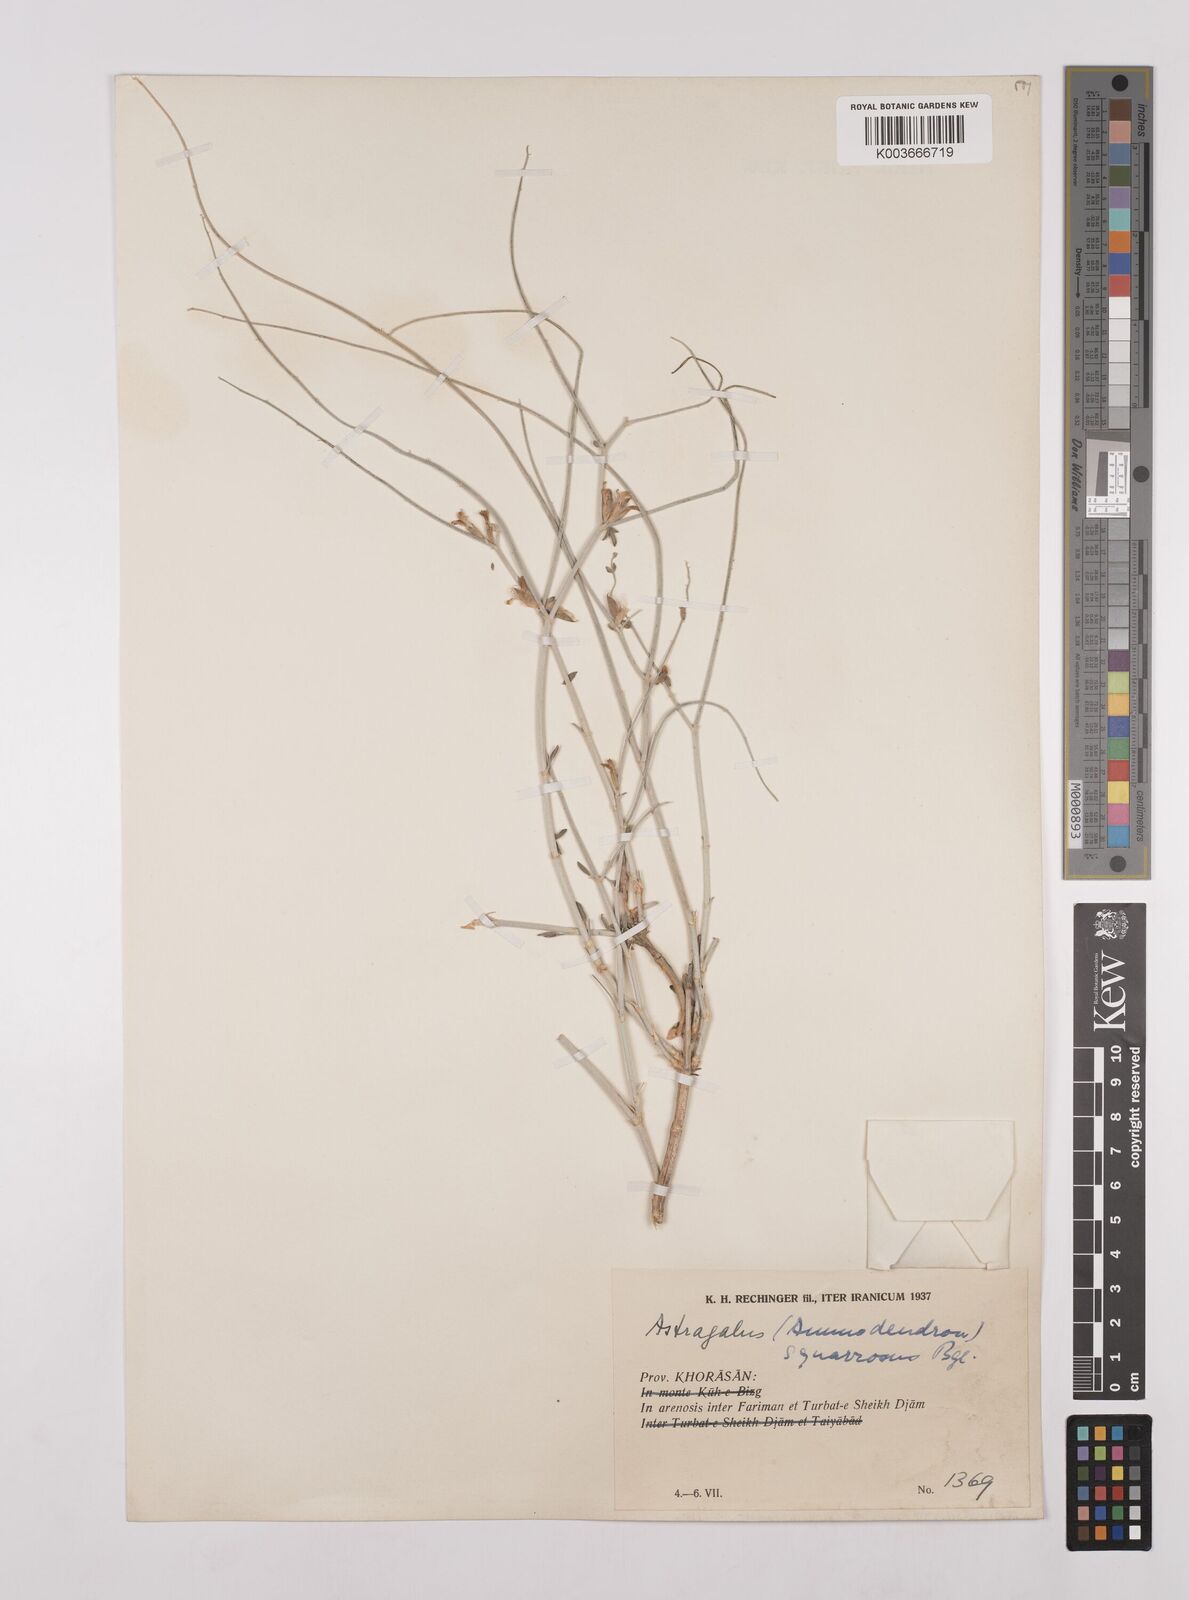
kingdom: Plantae
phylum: Tracheophyta
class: Magnoliopsida
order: Fabales
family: Fabaceae
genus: Astragalus
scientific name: Astragalus squarrosus
